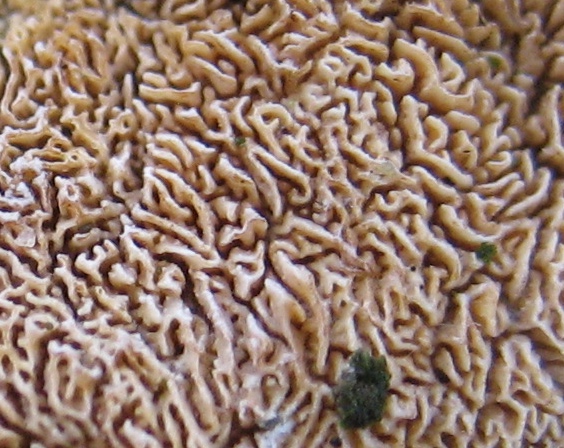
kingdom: Fungi
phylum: Basidiomycota
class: Agaricomycetes
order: Hymenochaetales
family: Schizoporaceae
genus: Xylodon
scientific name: Xylodon subtropicus
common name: labyrint-tandsvamp
